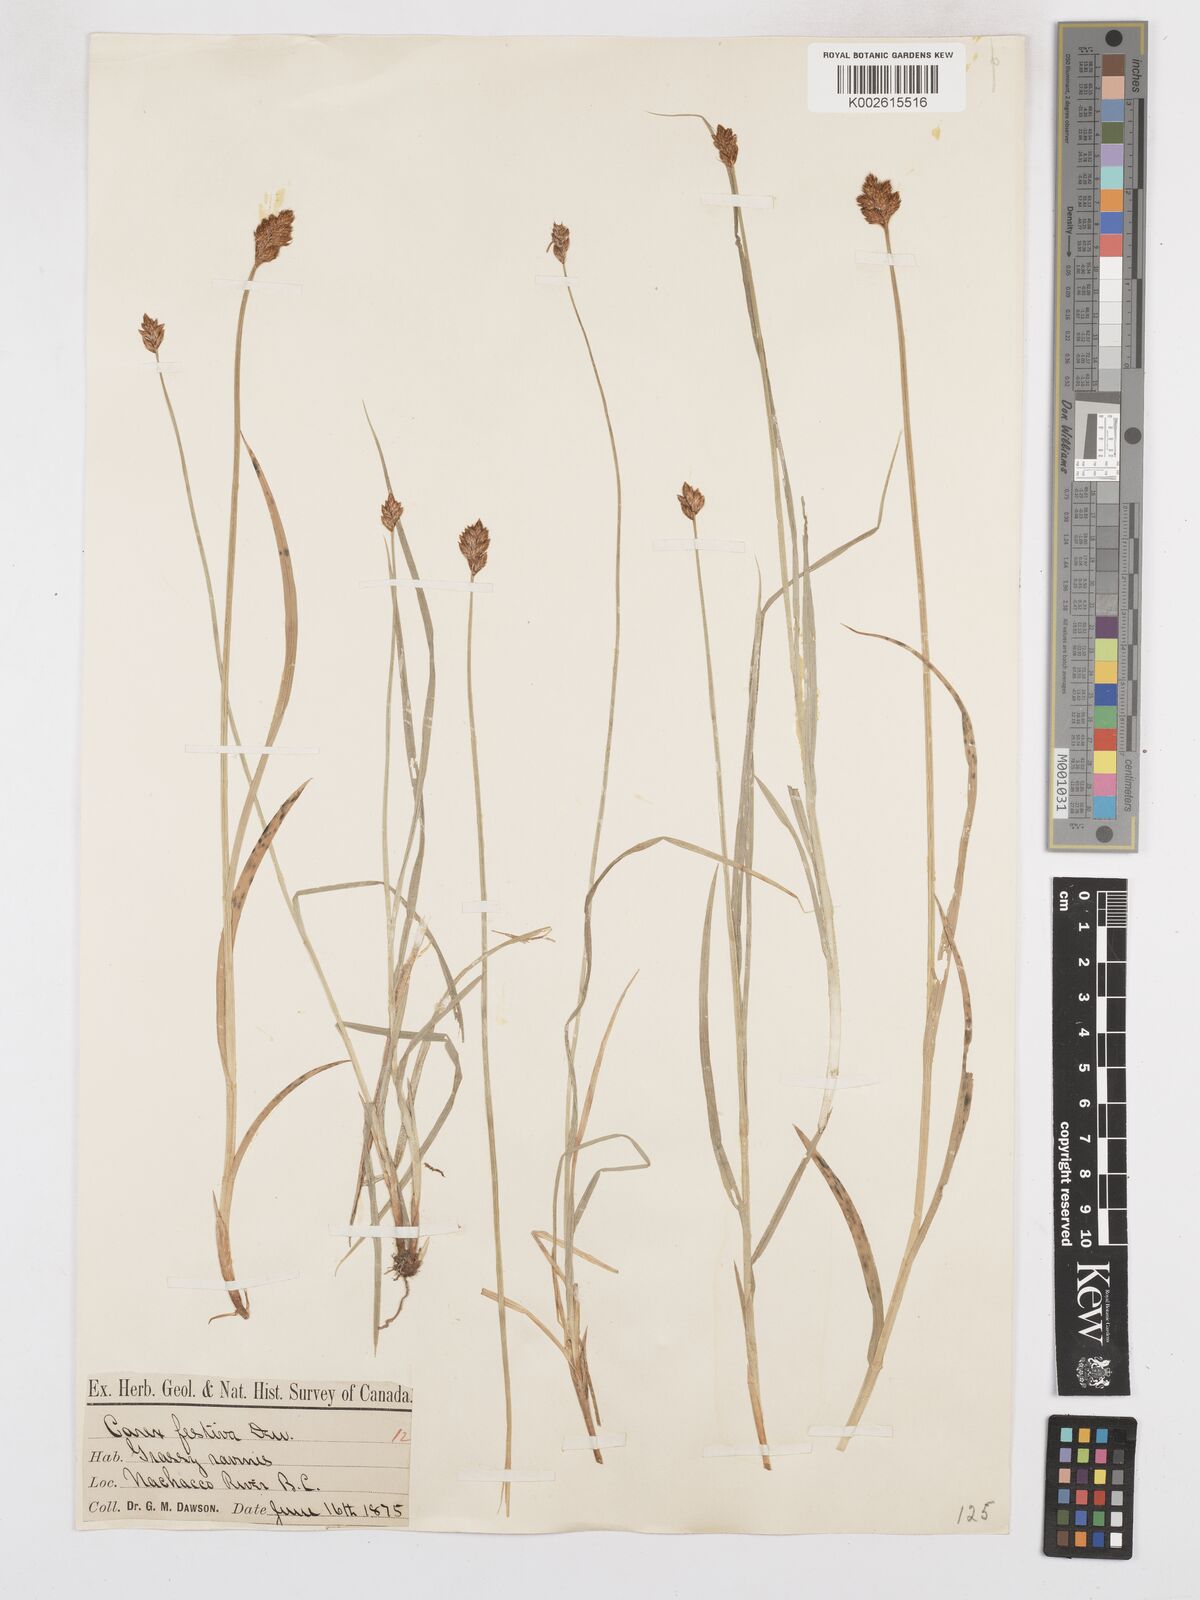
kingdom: Plantae
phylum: Tracheophyta
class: Liliopsida
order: Poales
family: Cyperaceae
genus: Carex
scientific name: Carex macloviana
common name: Falkland island sedge
